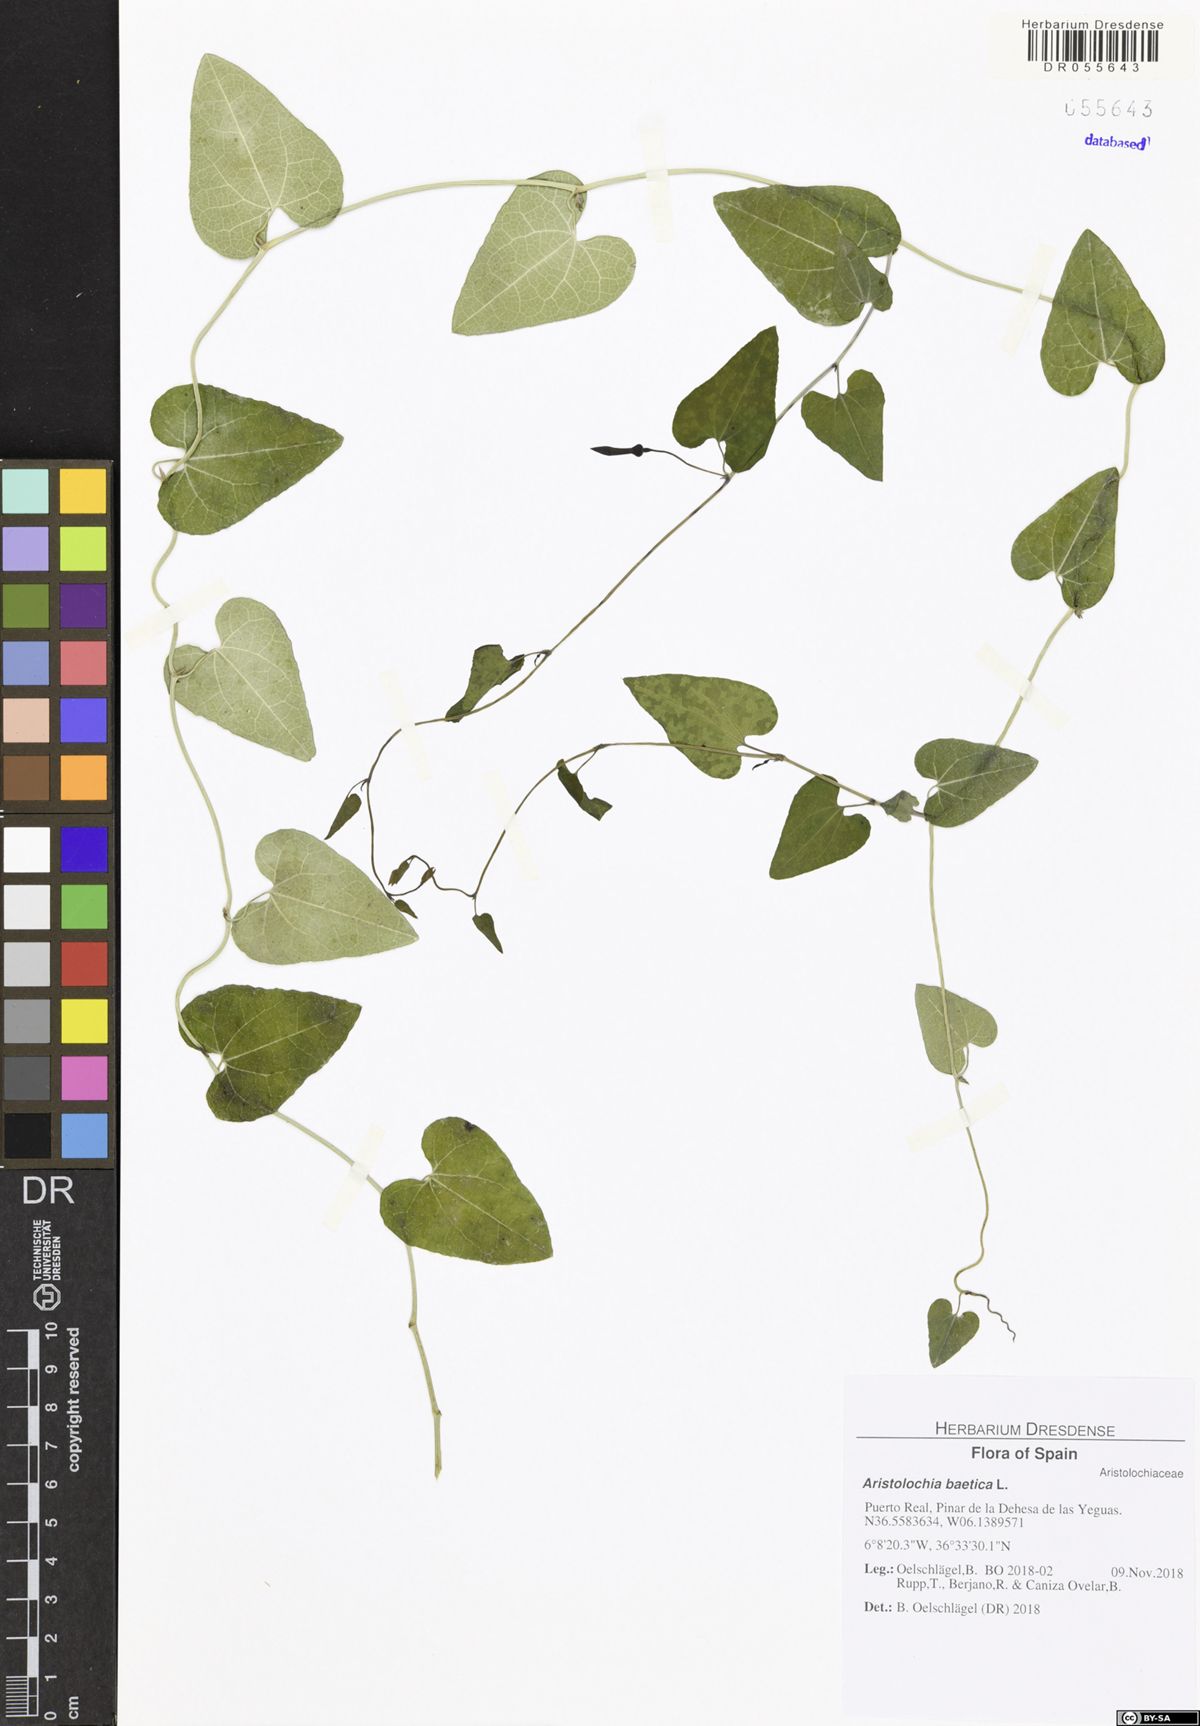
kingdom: Plantae
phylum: Tracheophyta
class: Magnoliopsida
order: Piperales
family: Aristolochiaceae
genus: Aristolochia
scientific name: Aristolochia baetica
